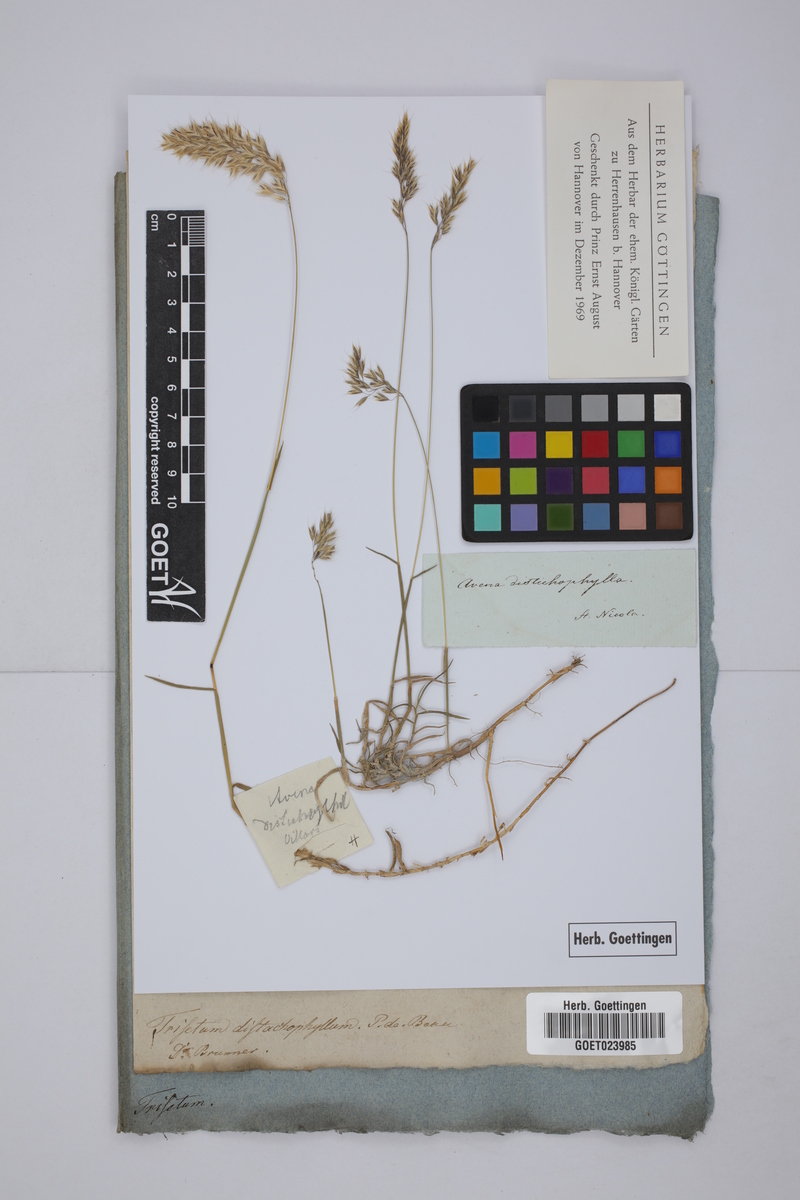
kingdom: Plantae
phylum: Tracheophyta
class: Liliopsida
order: Poales
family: Poaceae
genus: Acrospelion
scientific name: Acrospelion distichophyllum
